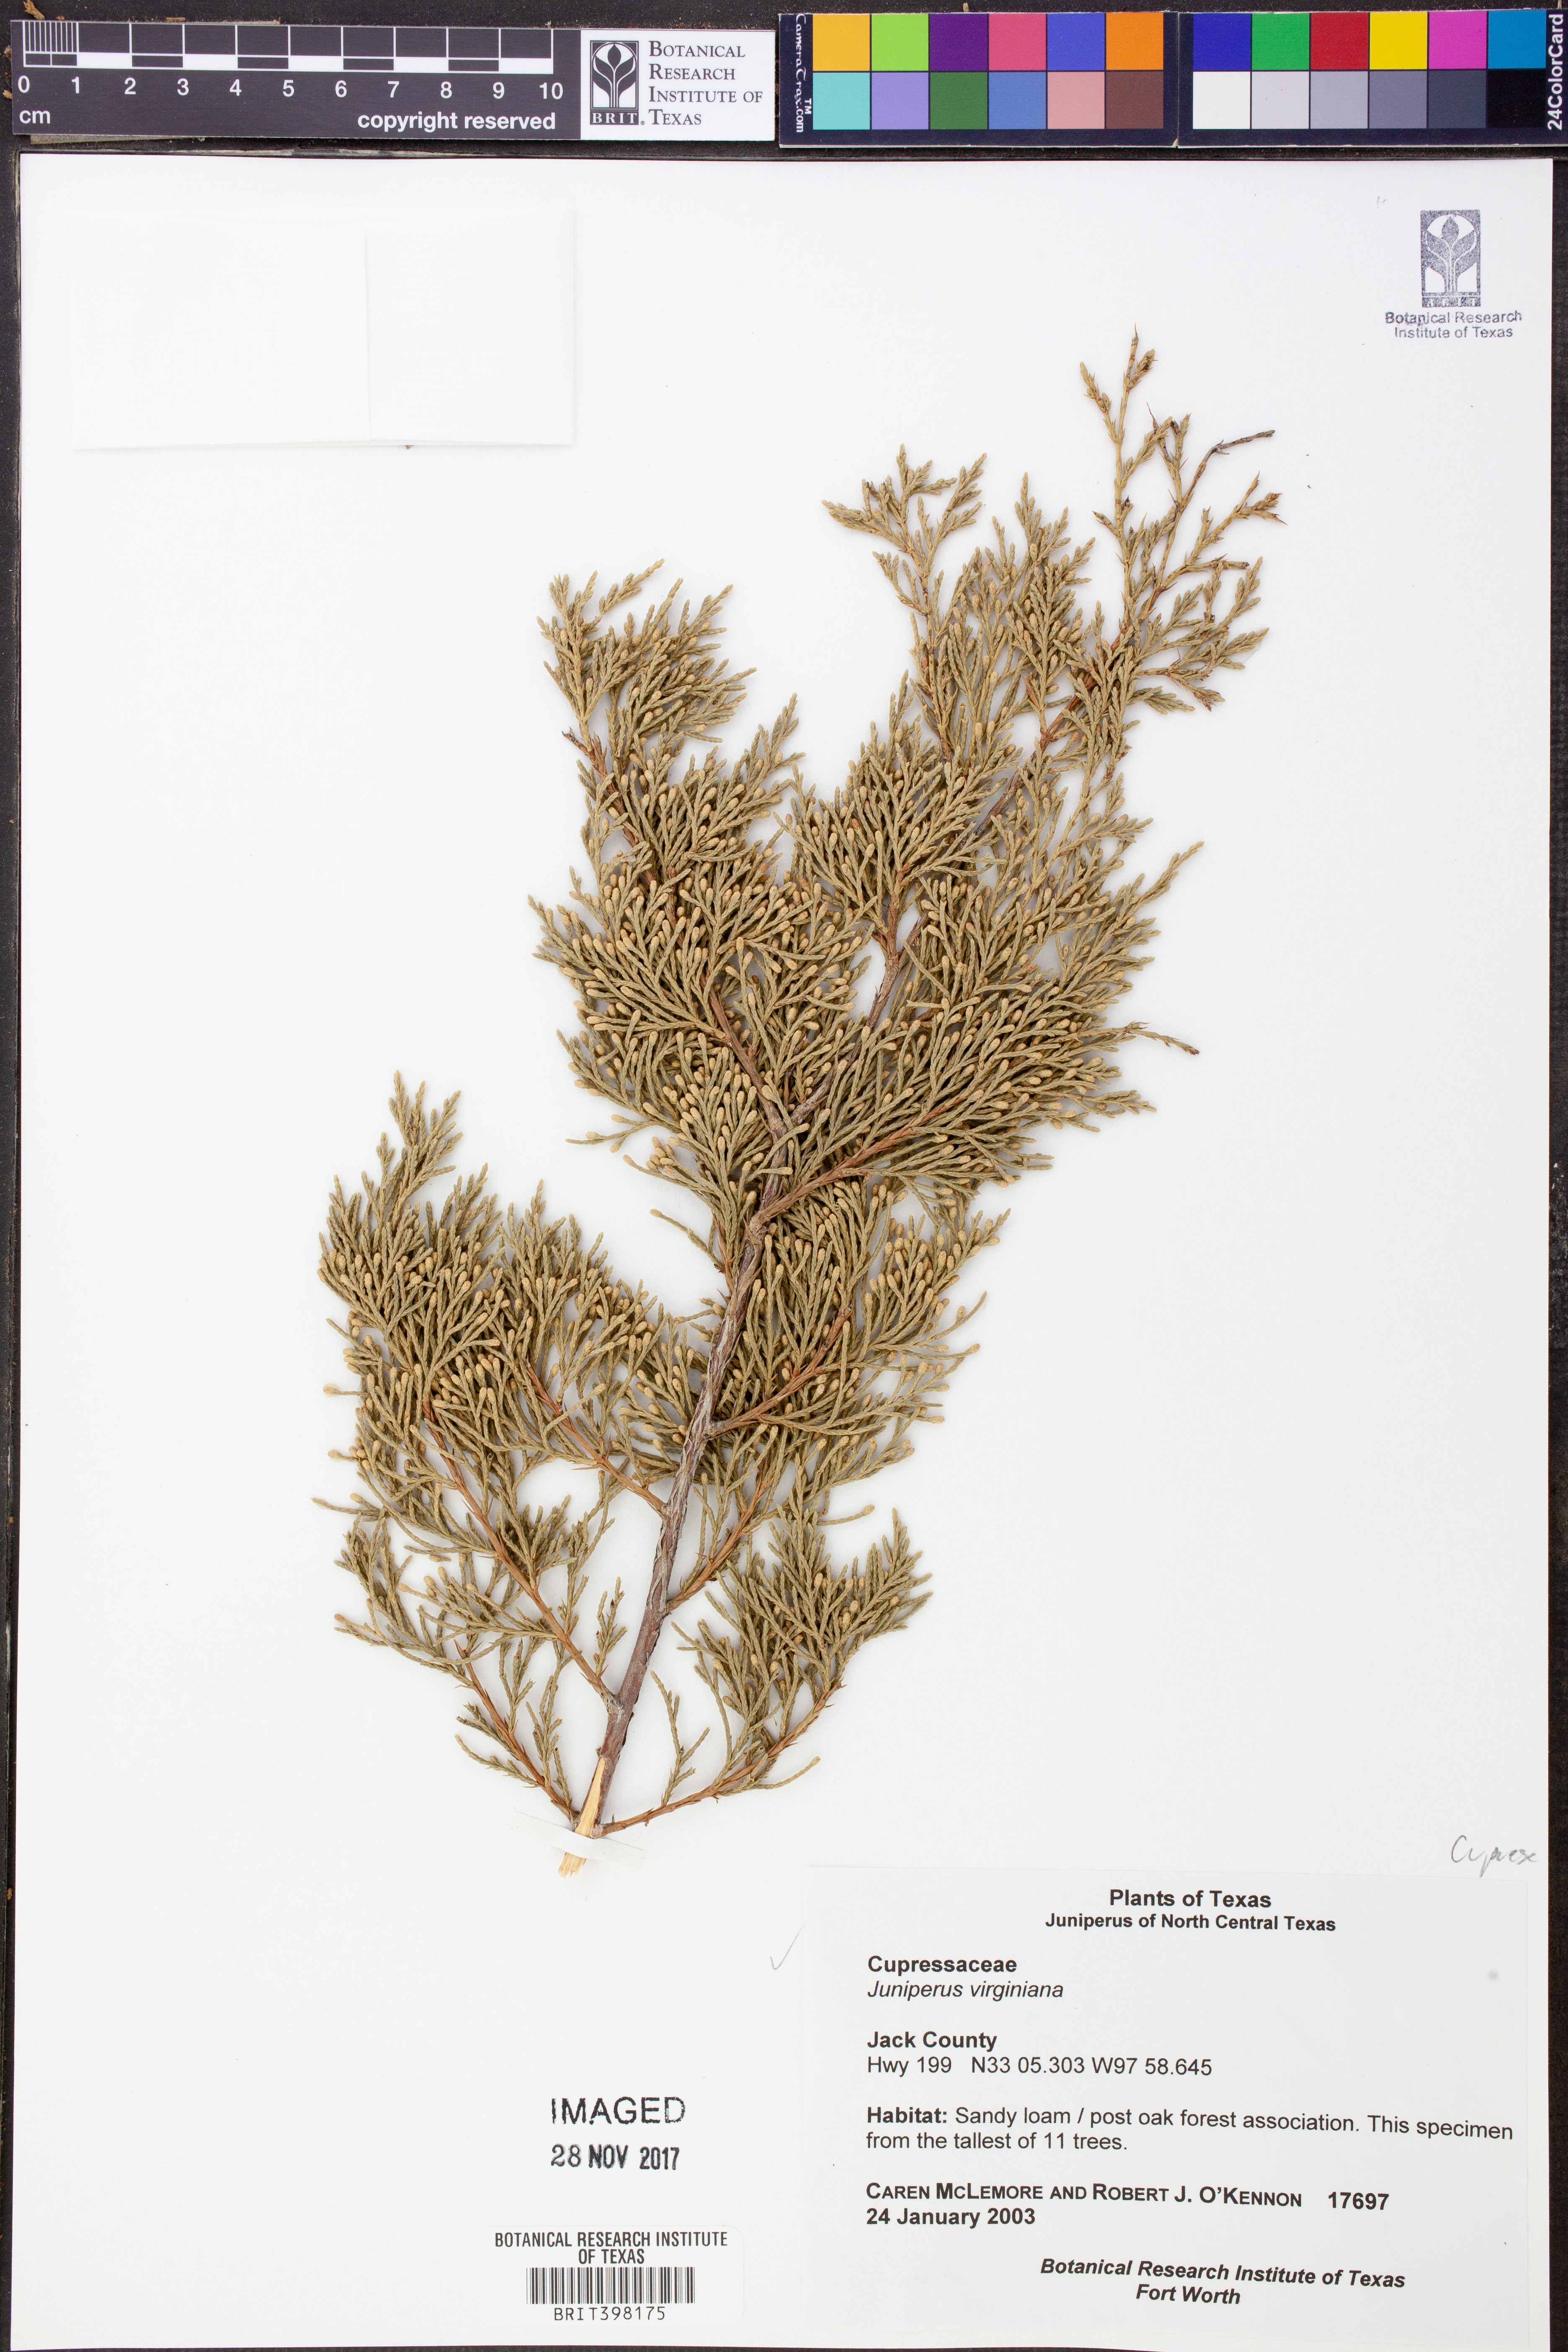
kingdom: Plantae
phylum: Tracheophyta
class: Pinopsida
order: Pinales
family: Cupressaceae
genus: Juniperus
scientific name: Juniperus virginiana
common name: Red juniper
